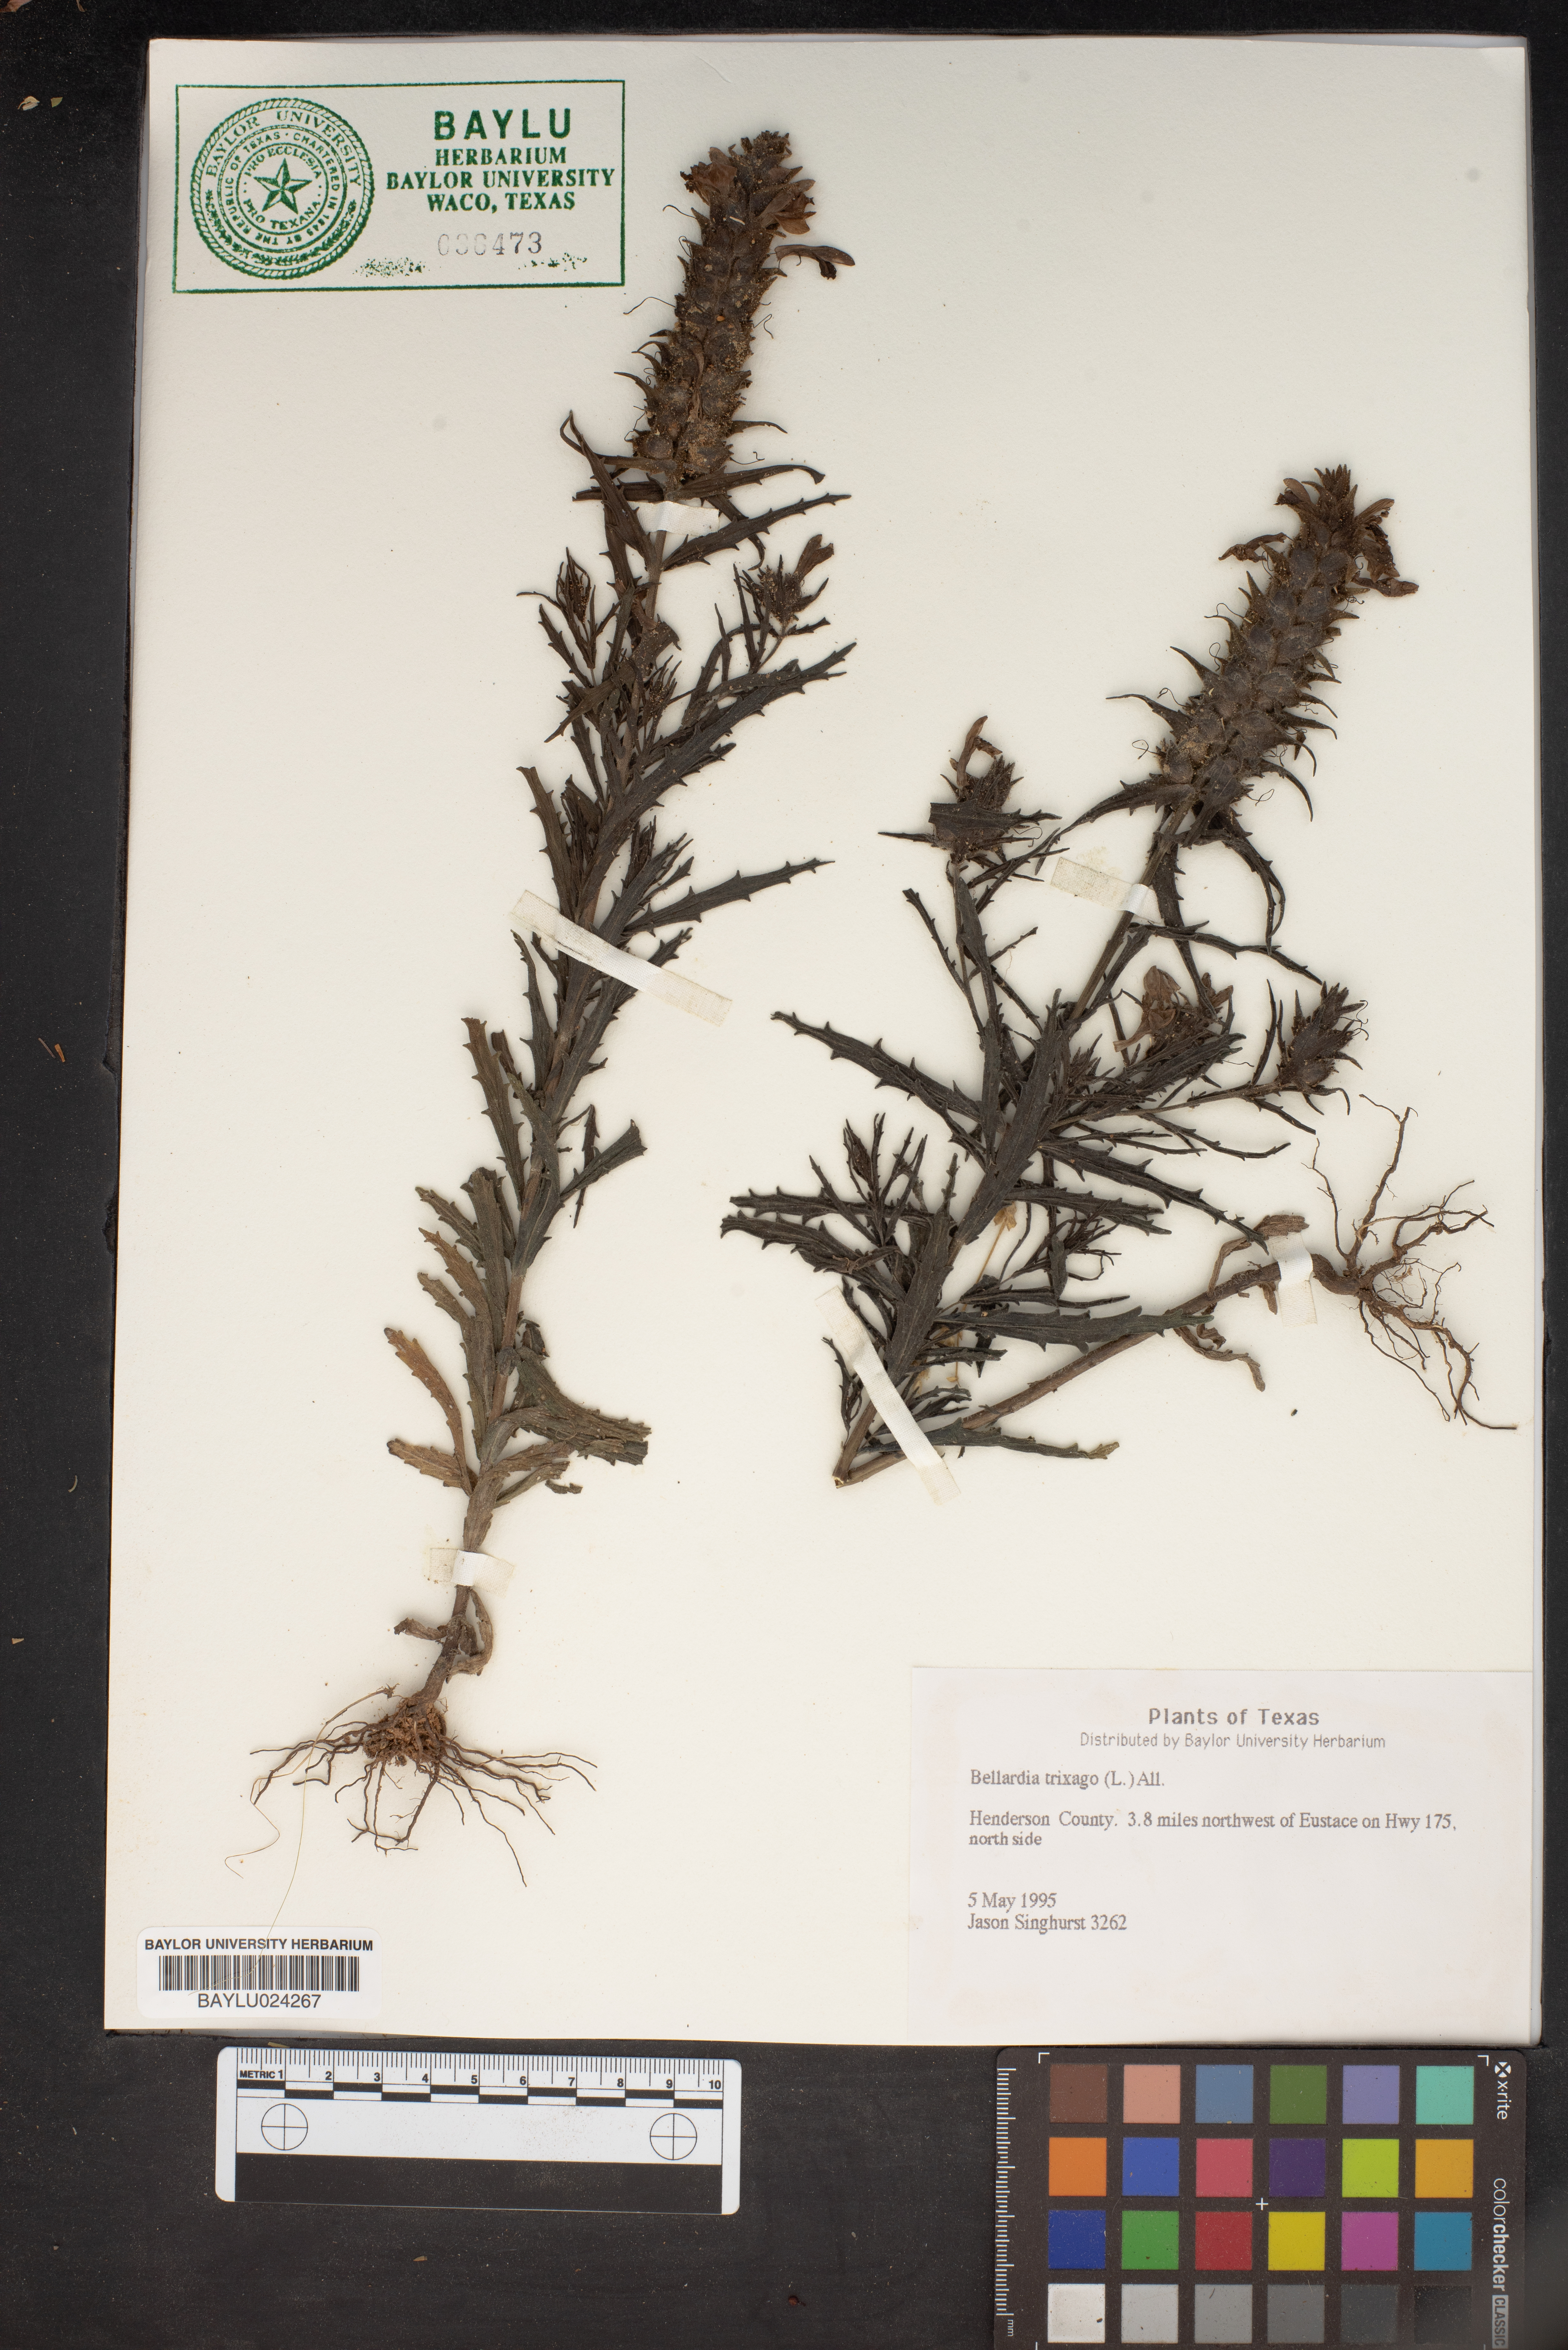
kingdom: Plantae
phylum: Tracheophyta
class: Magnoliopsida
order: Lamiales
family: Orobanchaceae
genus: Bellardia
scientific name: Bellardia trixago
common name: Mediterranean lineseed
